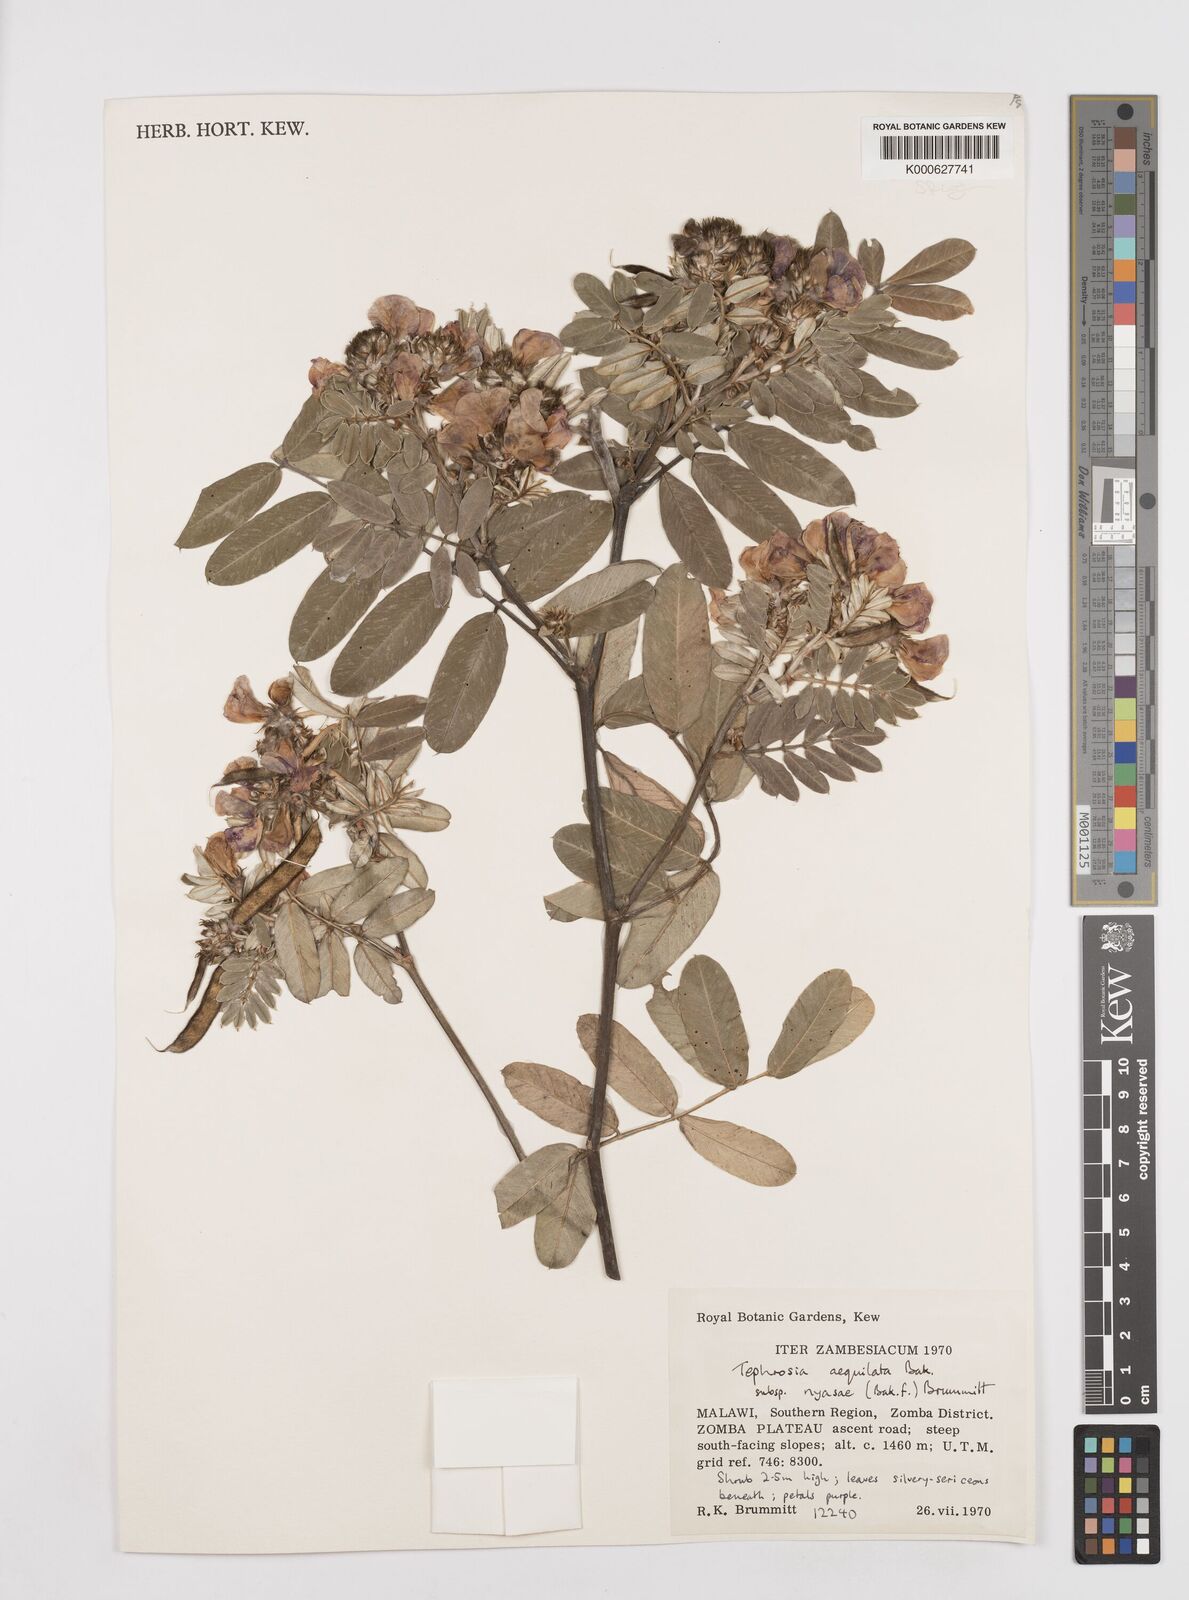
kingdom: Plantae
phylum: Tracheophyta
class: Magnoliopsida
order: Fabales
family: Fabaceae
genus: Tephrosia
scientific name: Tephrosia
